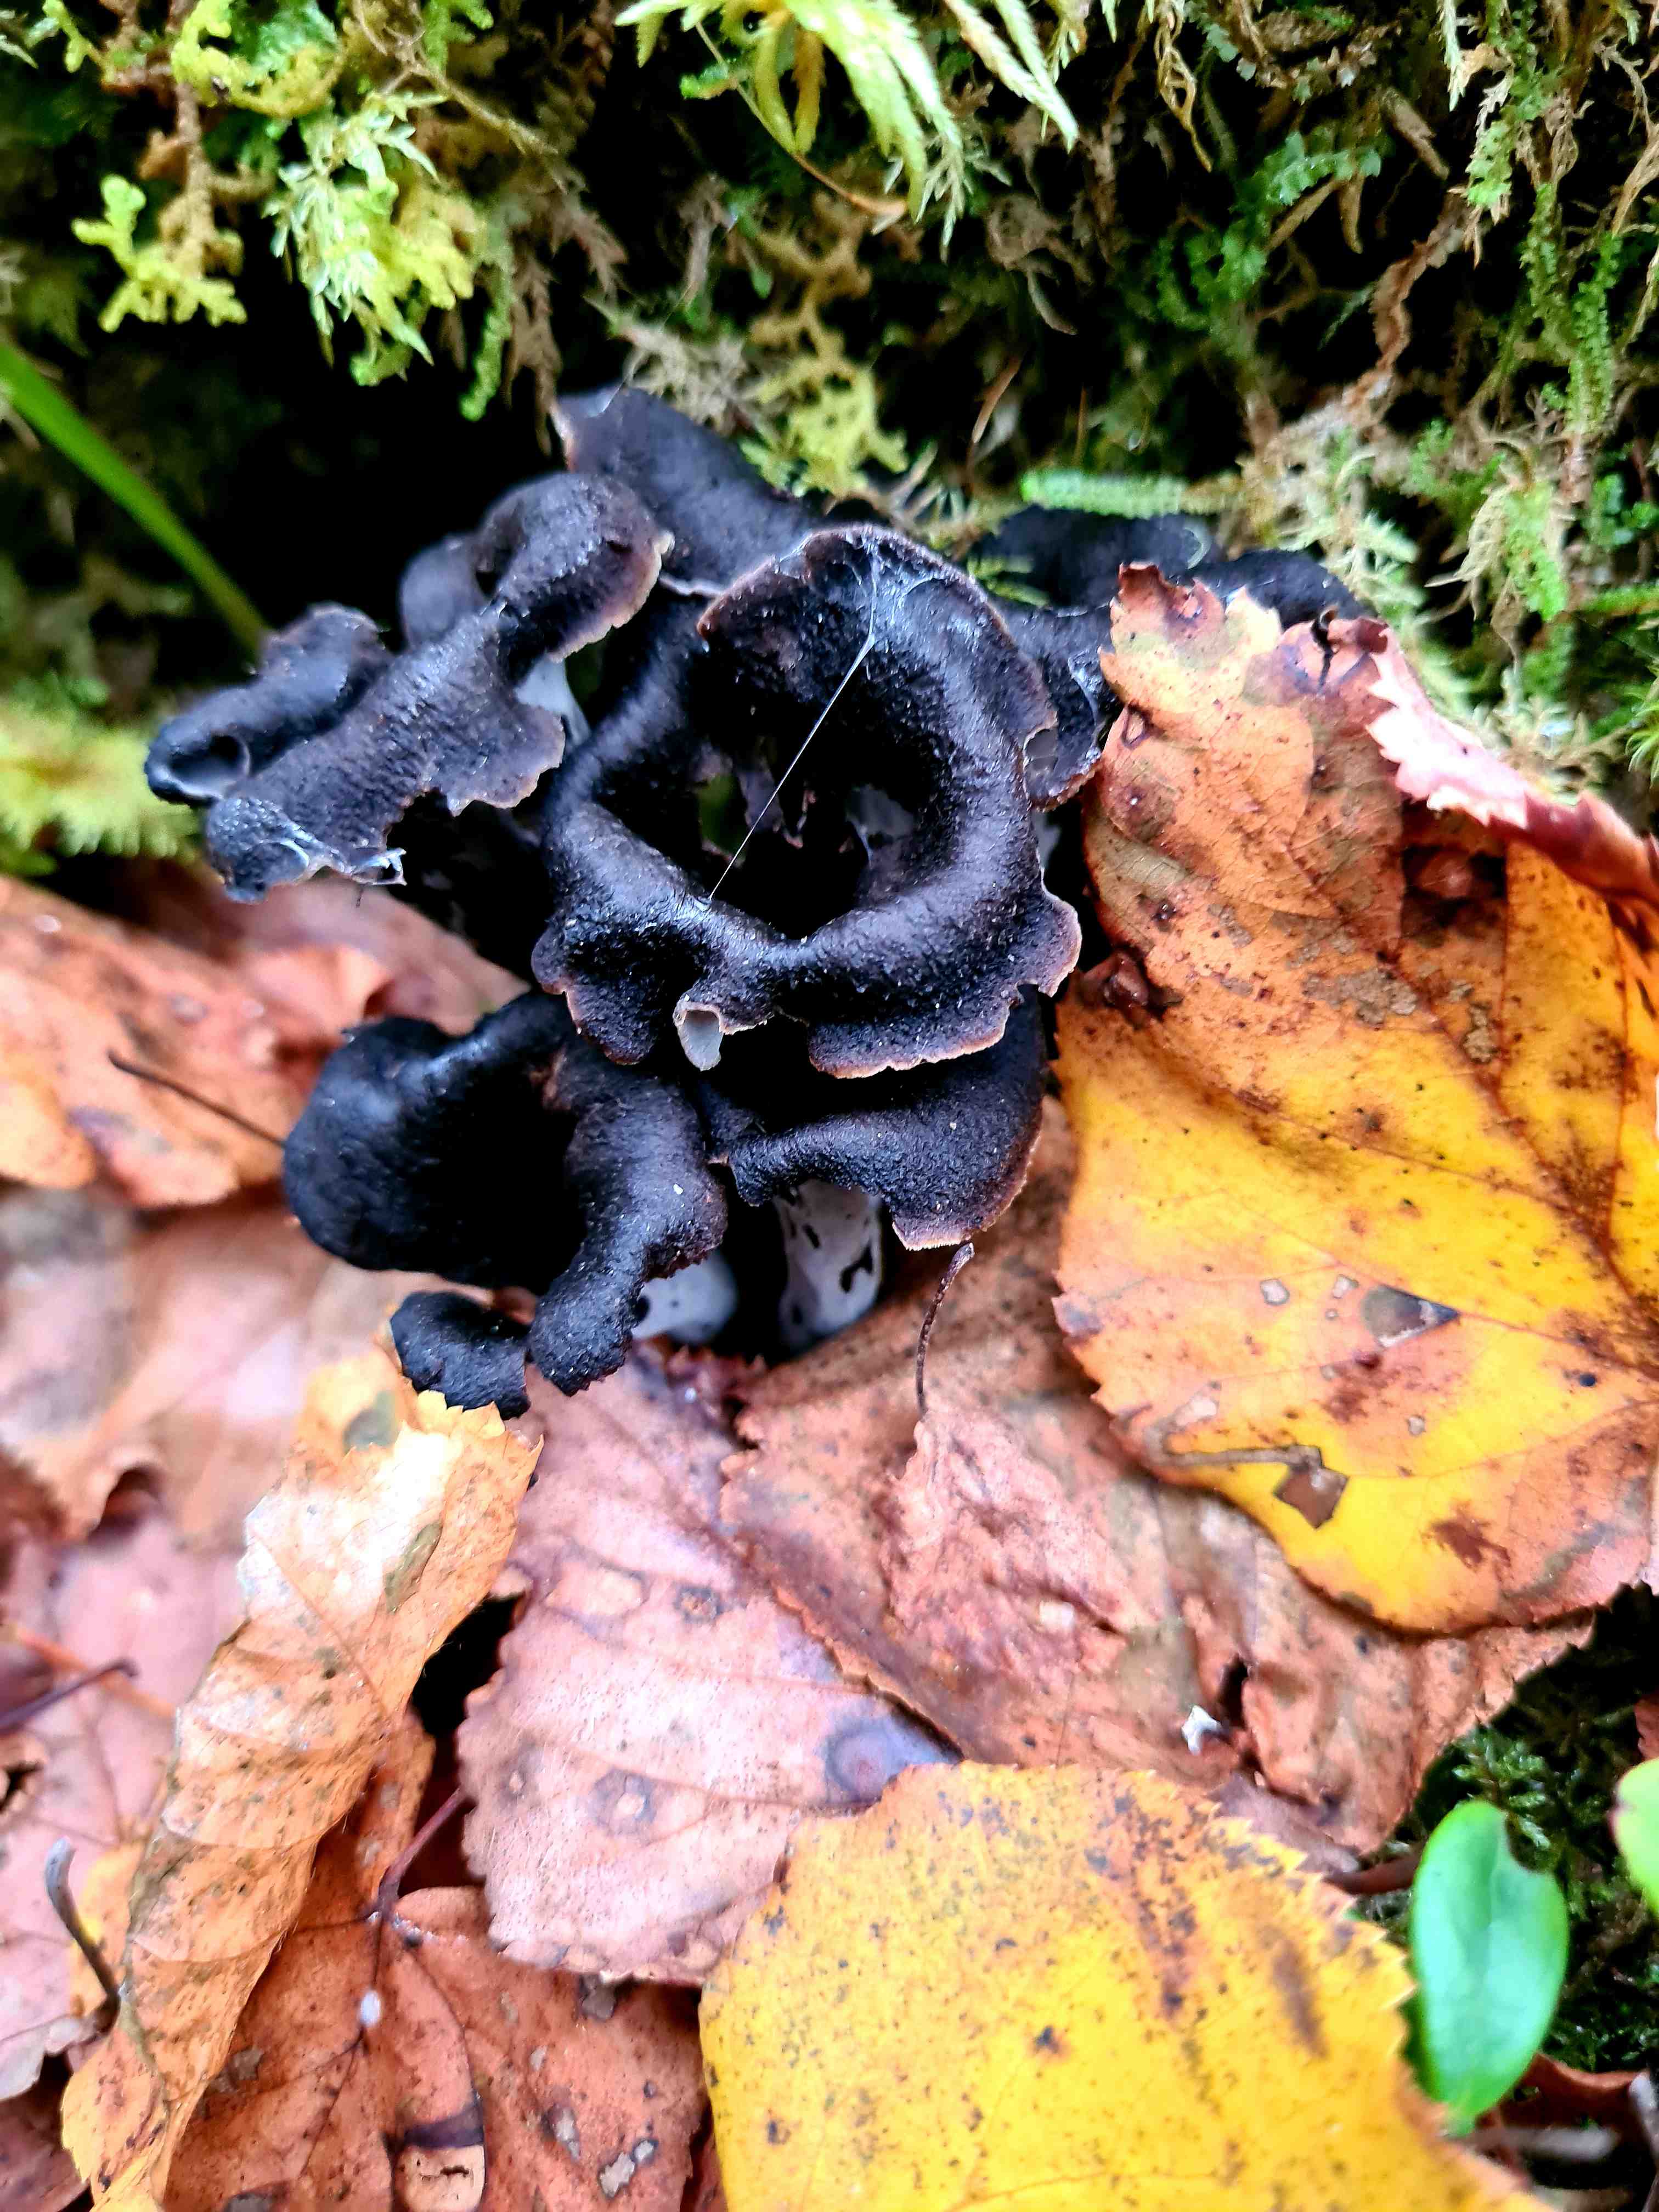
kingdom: Fungi
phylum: Basidiomycota
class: Agaricomycetes
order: Cantharellales
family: Hydnaceae
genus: Craterellus
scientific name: Craterellus cornucopioides
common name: trompetsvamp
